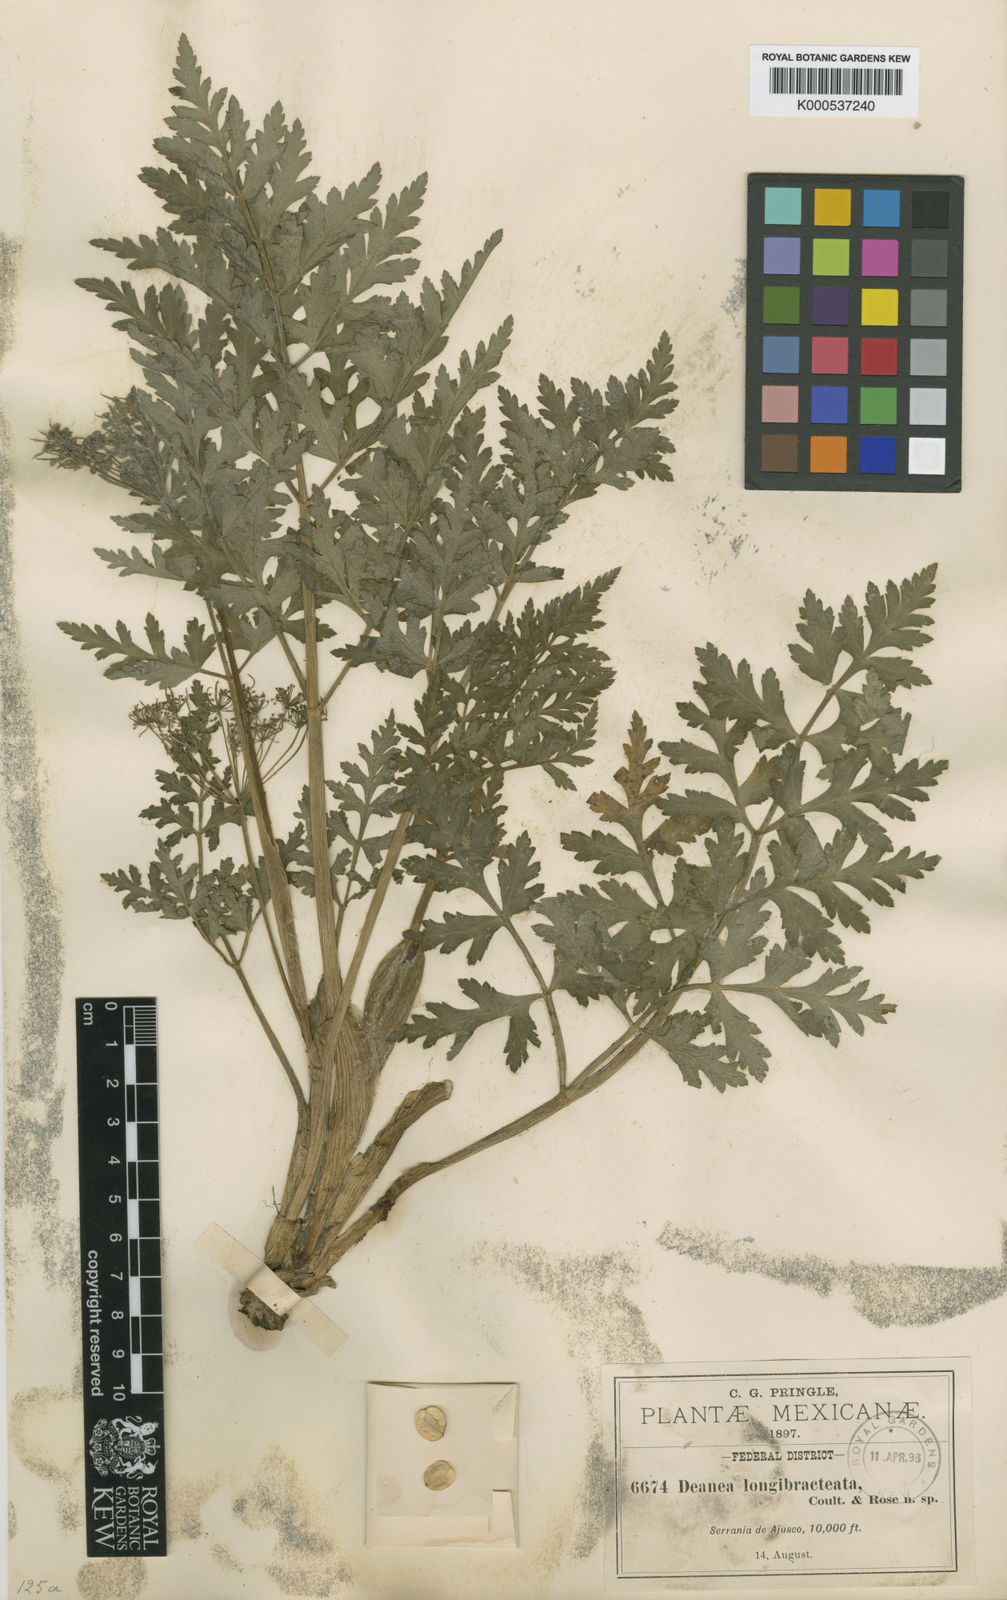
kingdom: Plantae
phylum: Tracheophyta
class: Magnoliopsida
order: Apiales
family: Apiaceae
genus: Rhodosciadium
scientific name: Rhodosciadium tolucense
